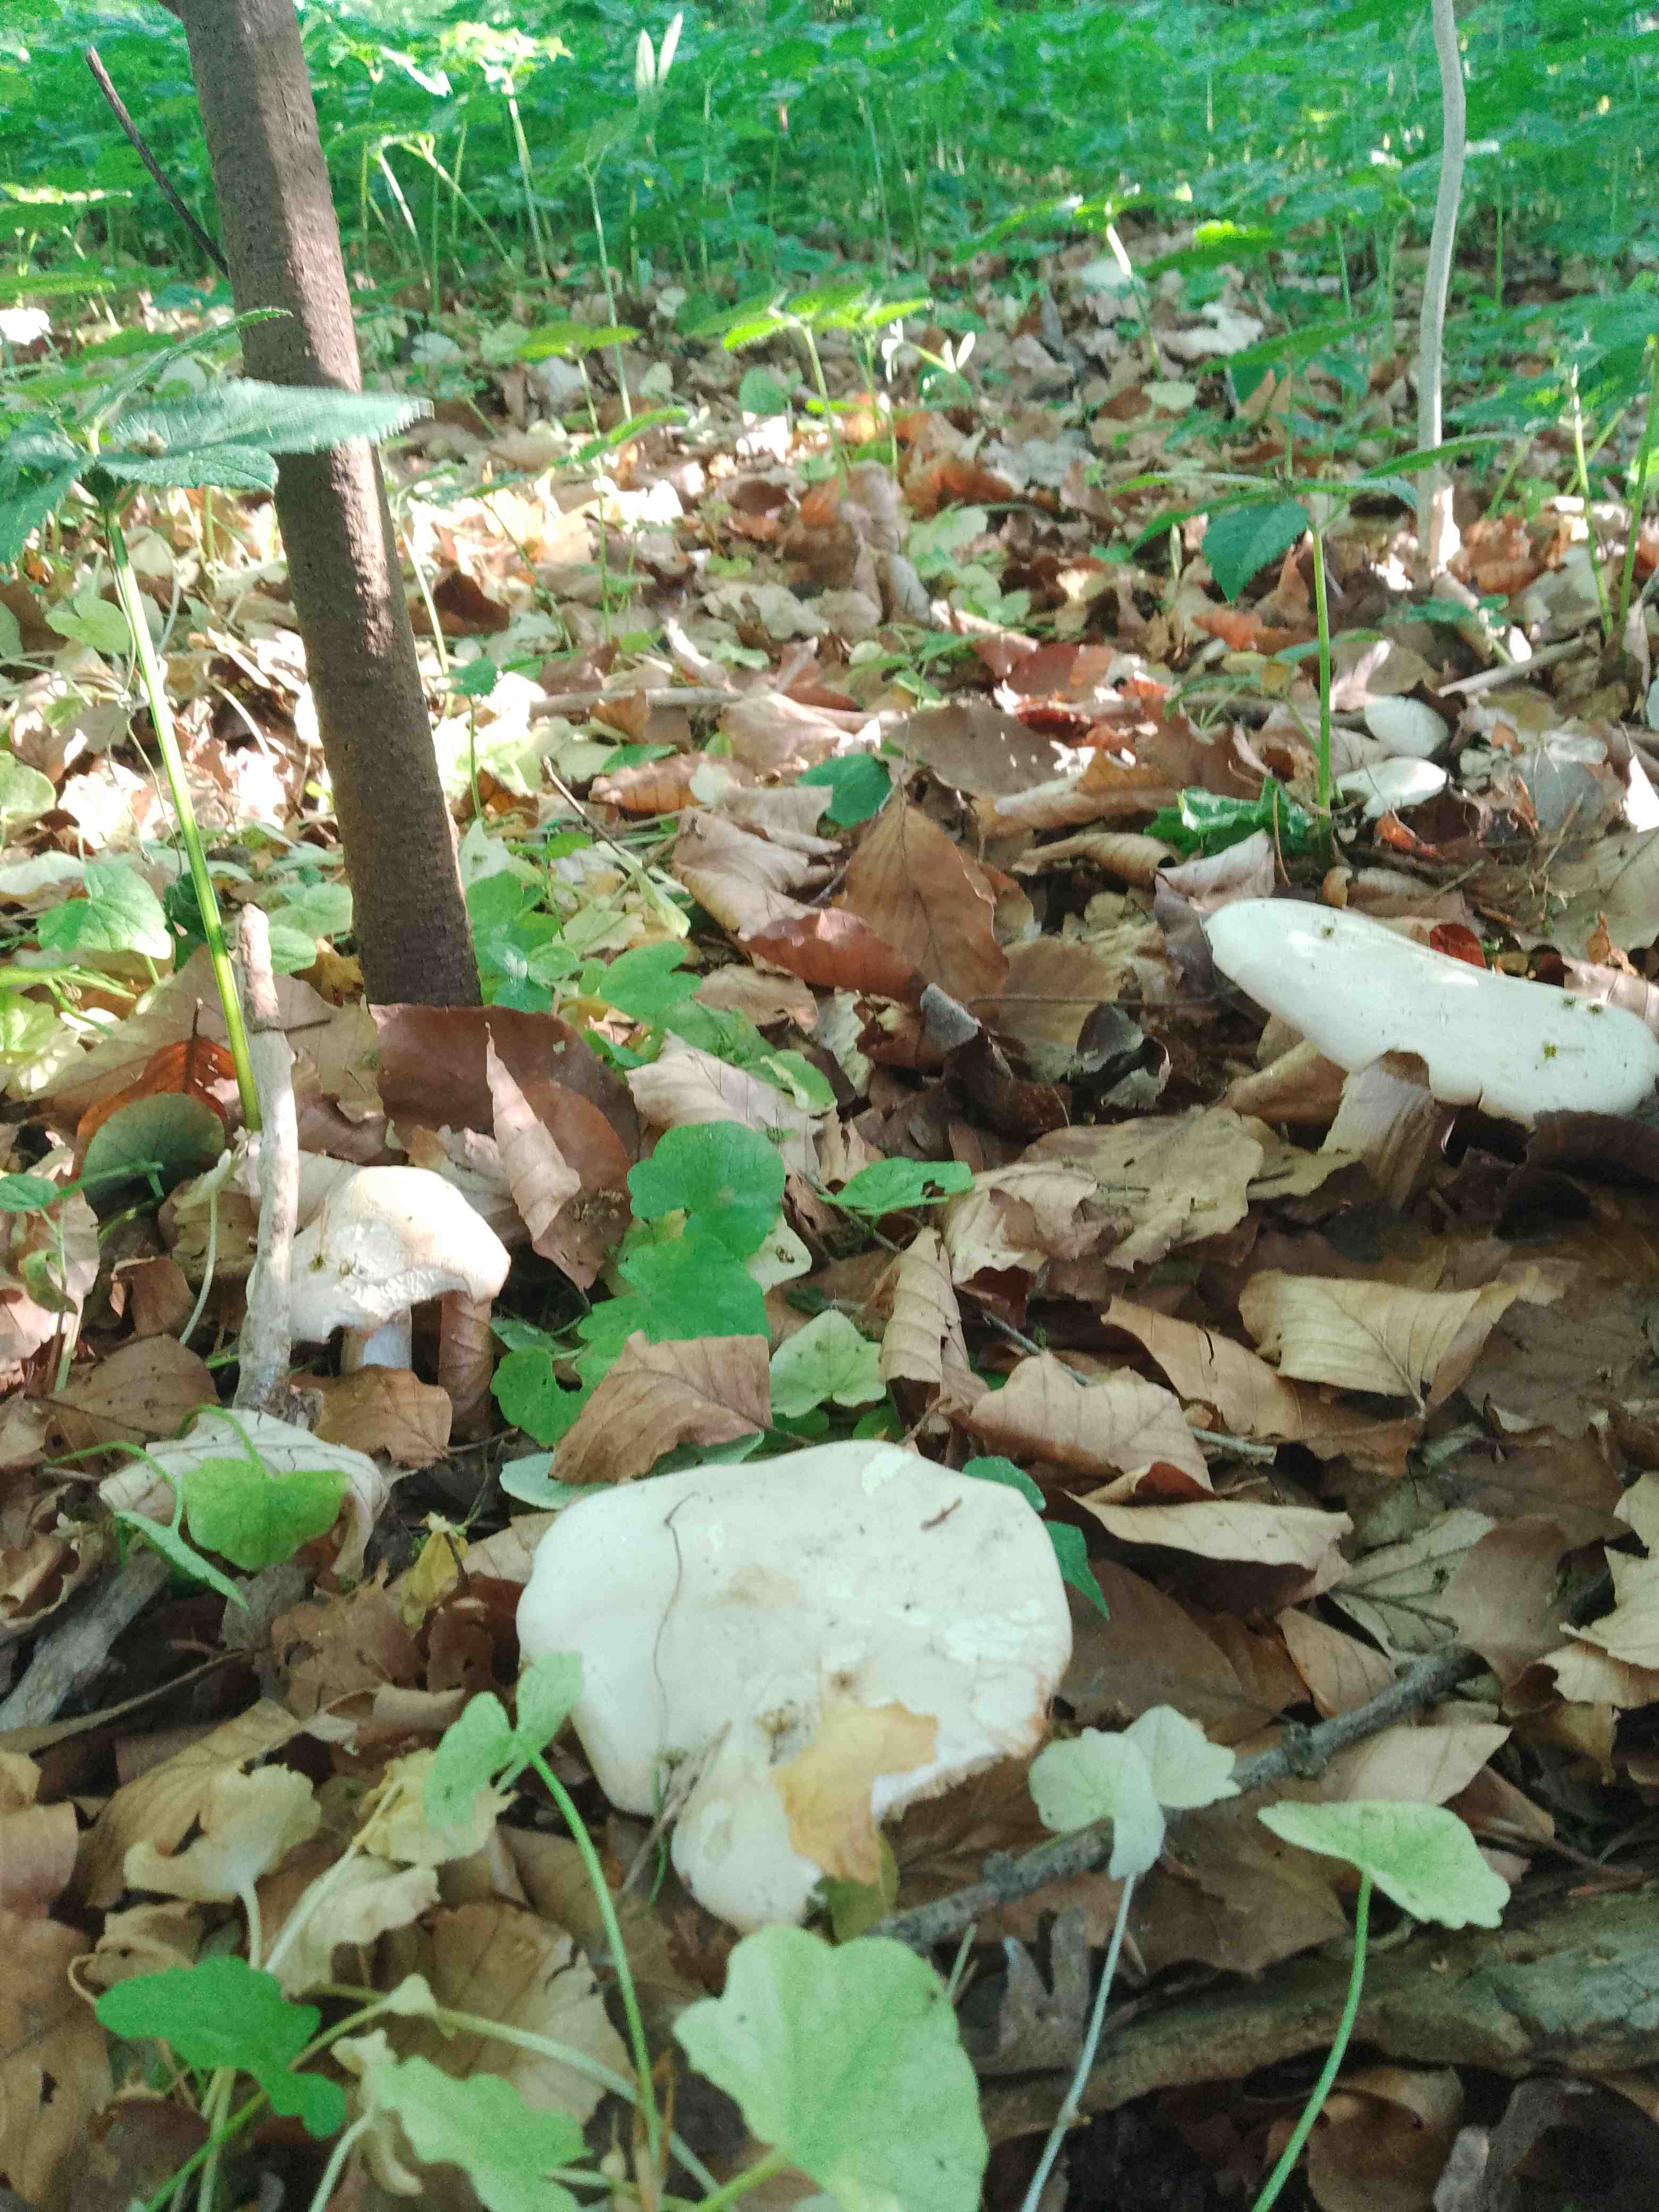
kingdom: Fungi
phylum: Basidiomycota
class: Agaricomycetes
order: Agaricales
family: Lyophyllaceae
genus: Calocybe
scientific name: Calocybe gambosa
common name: vårmusseron
